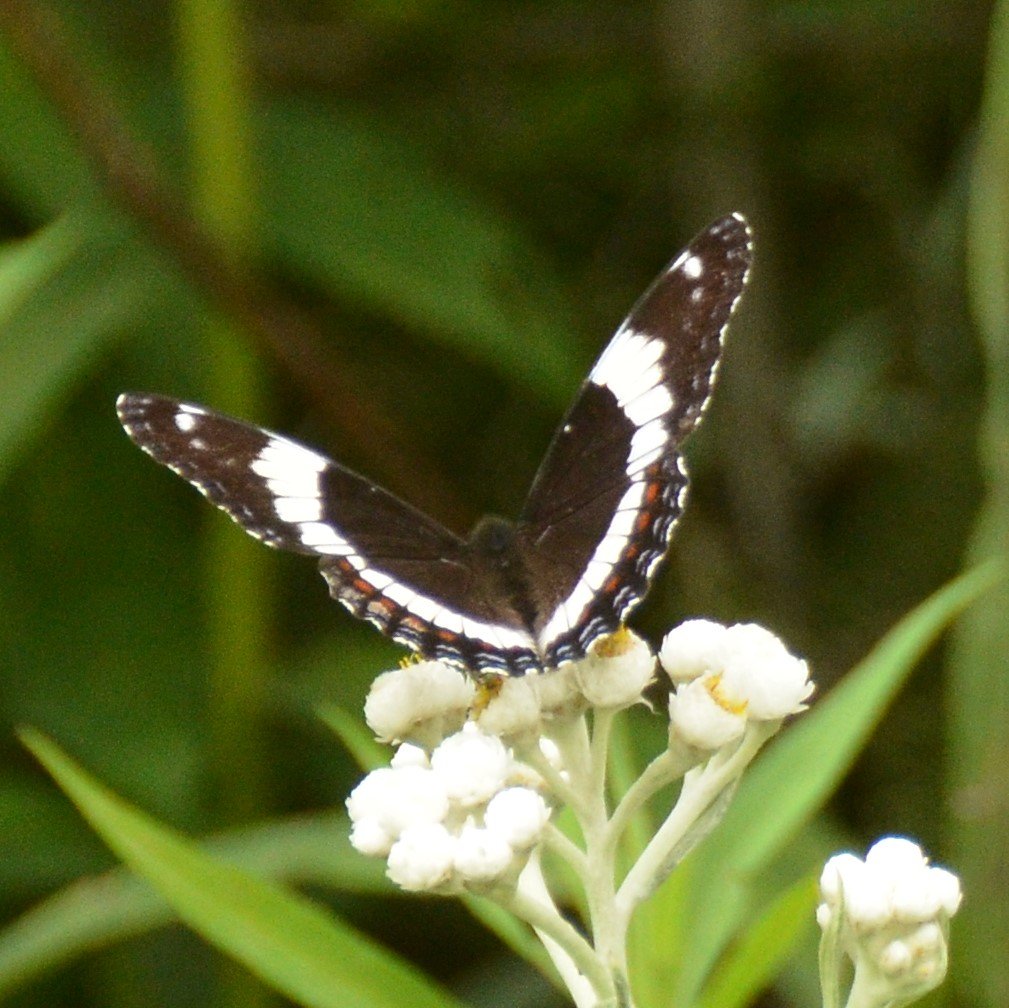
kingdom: Animalia
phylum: Arthropoda
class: Insecta
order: Lepidoptera
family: Nymphalidae
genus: Limenitis
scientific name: Limenitis arthemis
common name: Red-spotted Admiral
